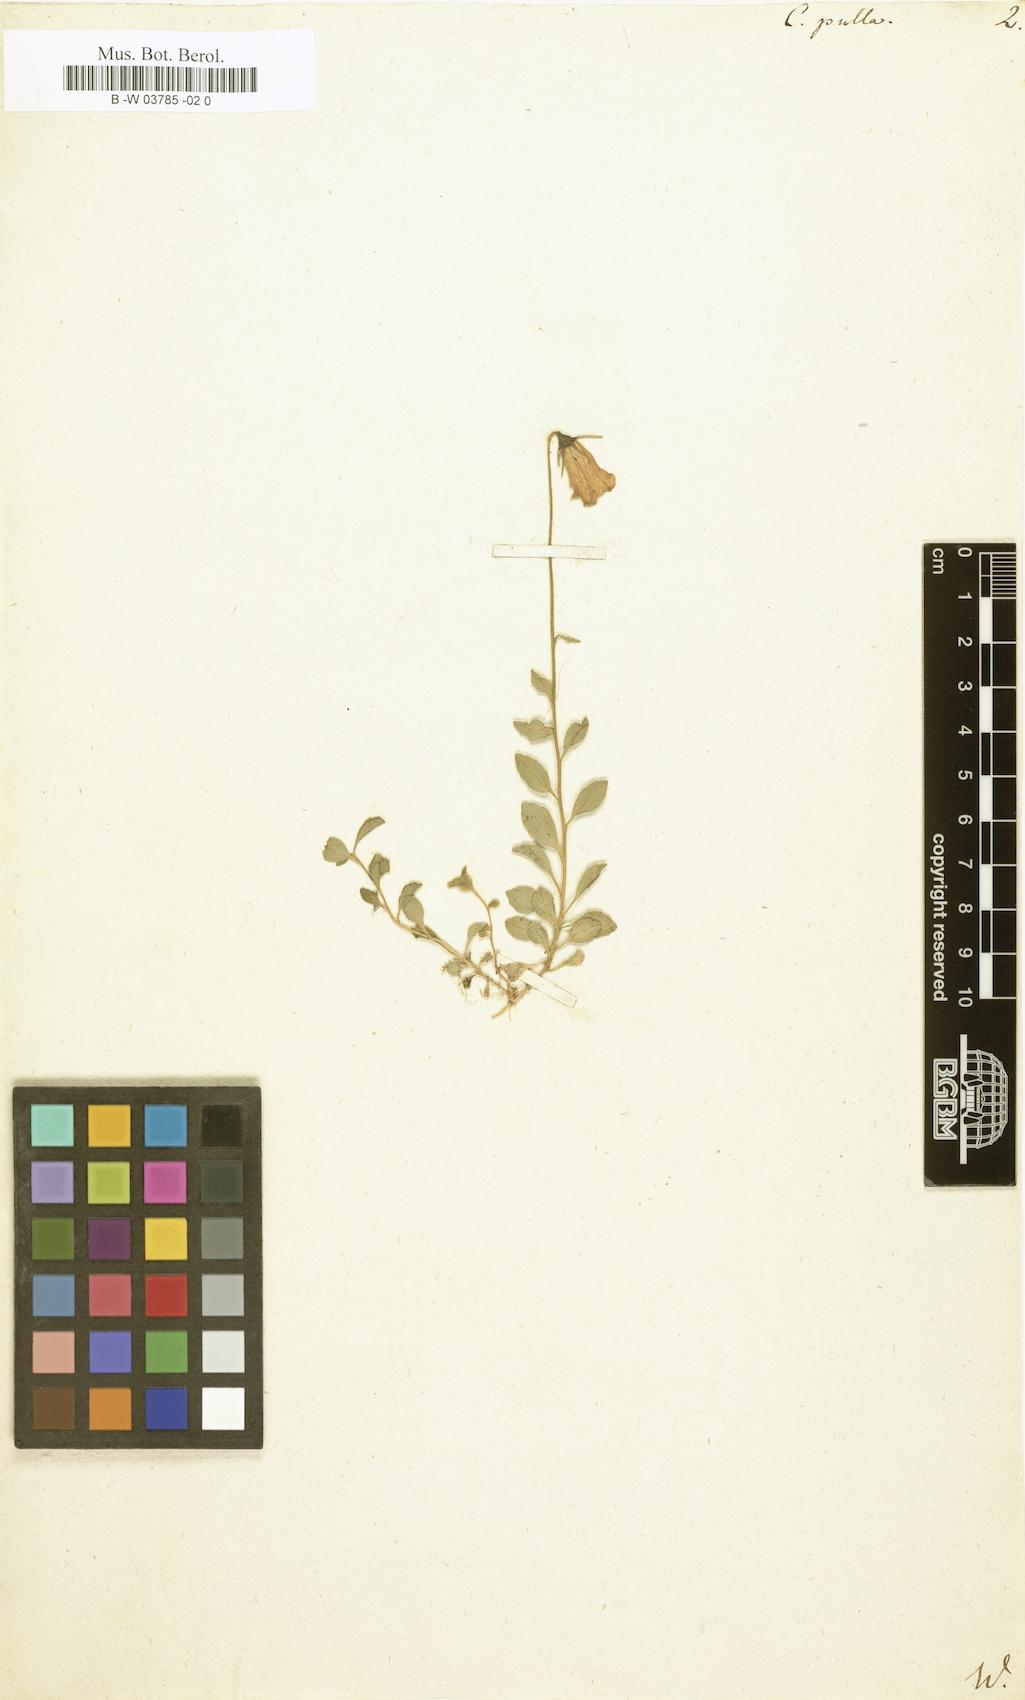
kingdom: Plantae
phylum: Tracheophyta
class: Magnoliopsida
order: Asterales
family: Campanulaceae
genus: Campanula
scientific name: Campanula pulla
